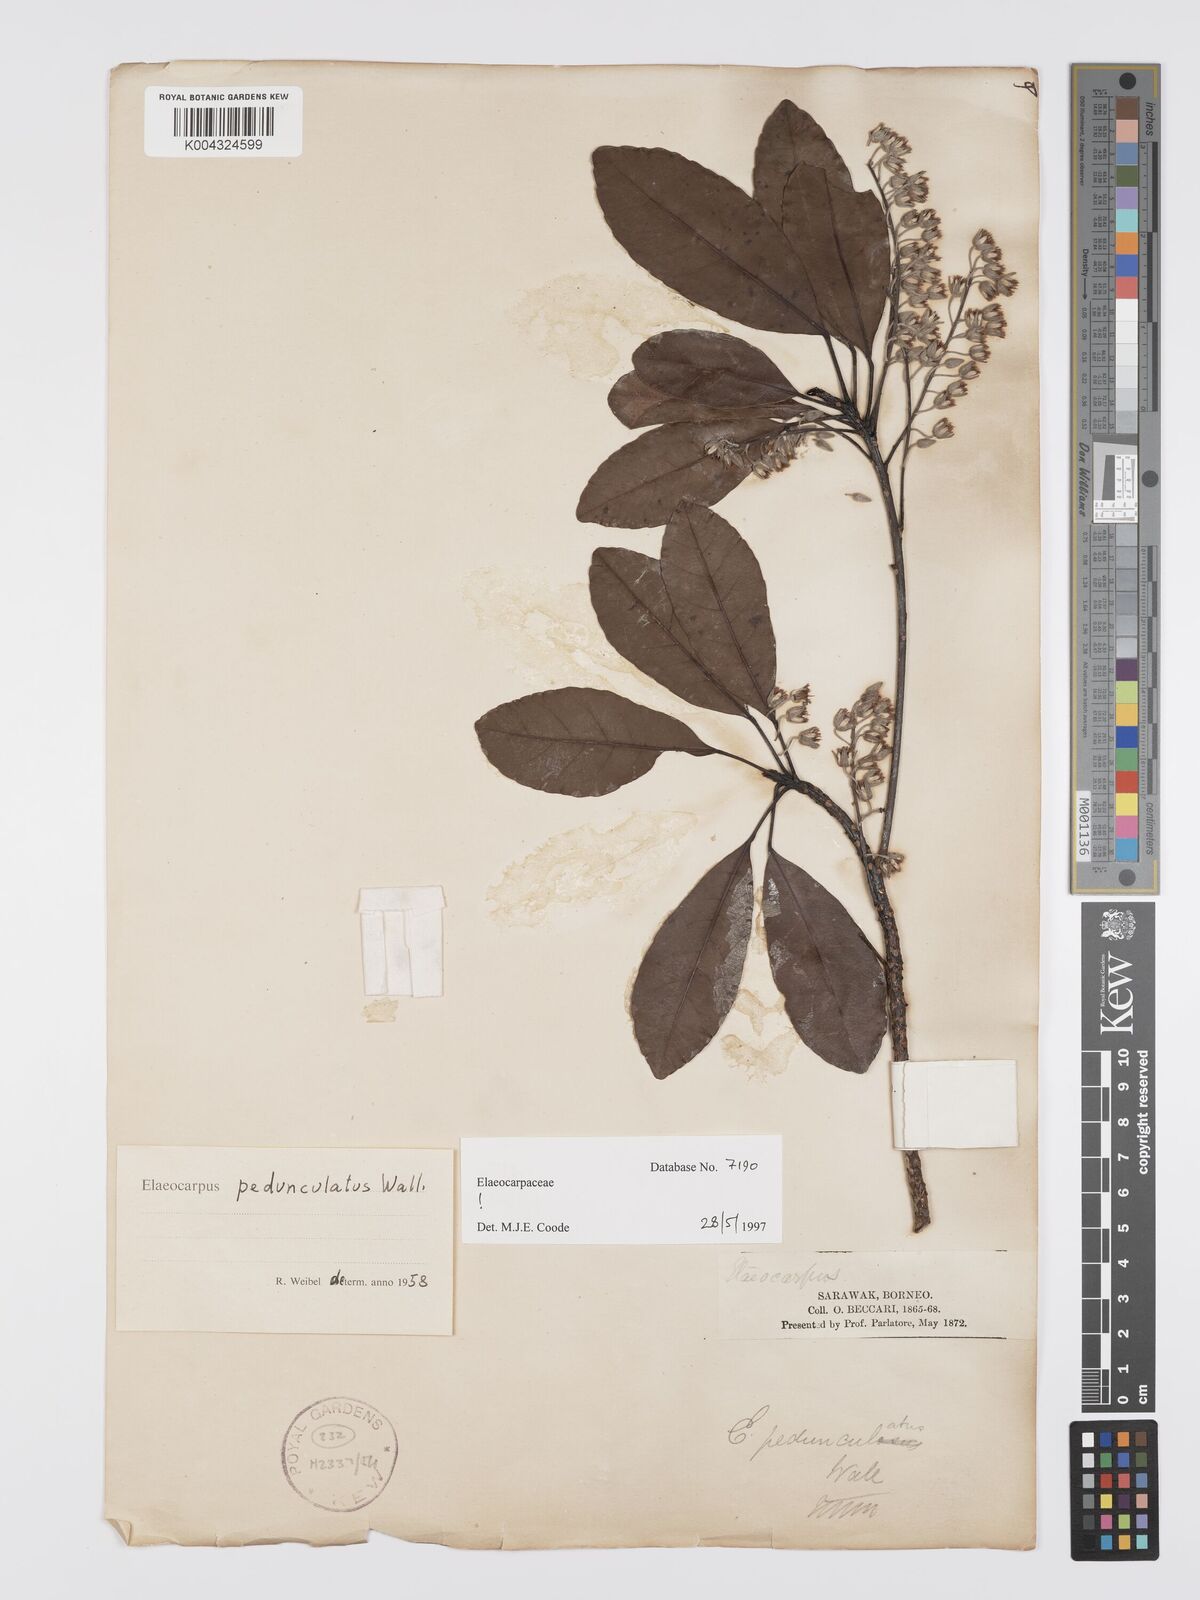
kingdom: Plantae
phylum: Tracheophyta
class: Magnoliopsida
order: Oxalidales
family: Elaeocarpaceae
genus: Elaeocarpus
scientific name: Elaeocarpus pedunculatus
